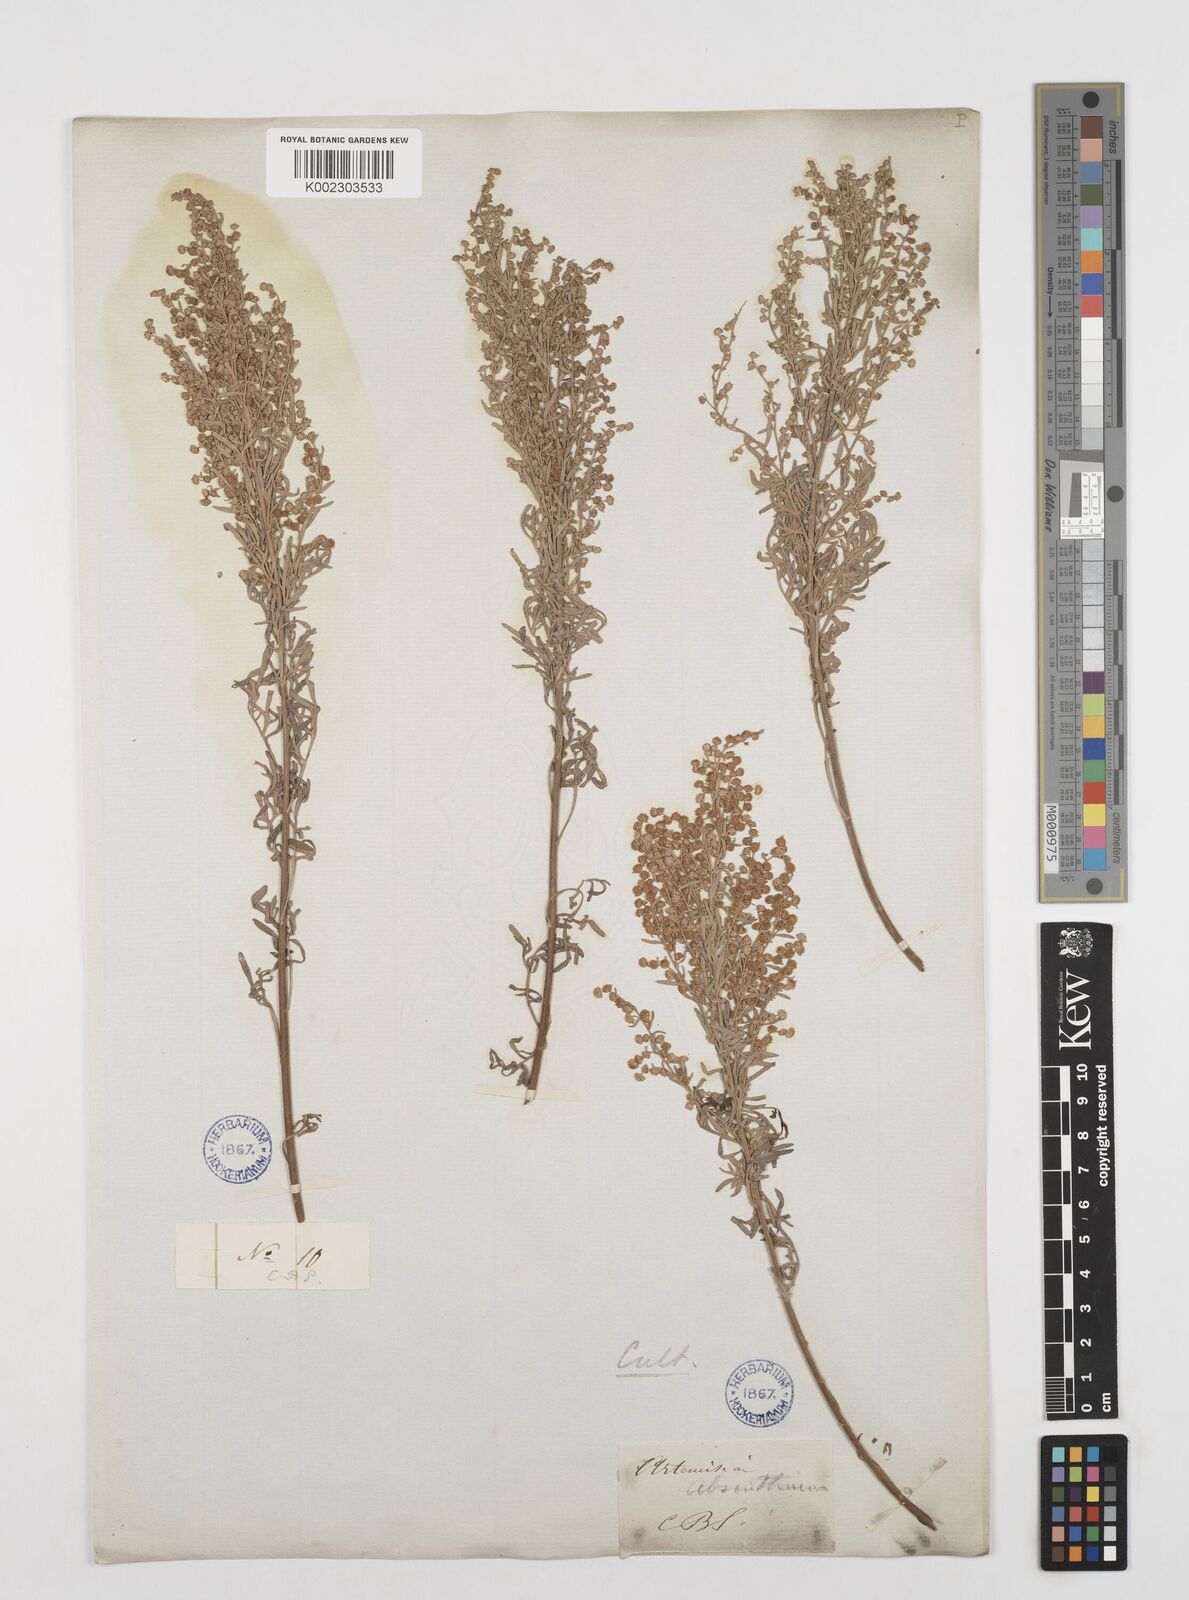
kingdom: Plantae
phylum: Tracheophyta
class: Magnoliopsida
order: Asterales
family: Asteraceae
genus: Artemisia
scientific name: Artemisia absinthium
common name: Wormwood
